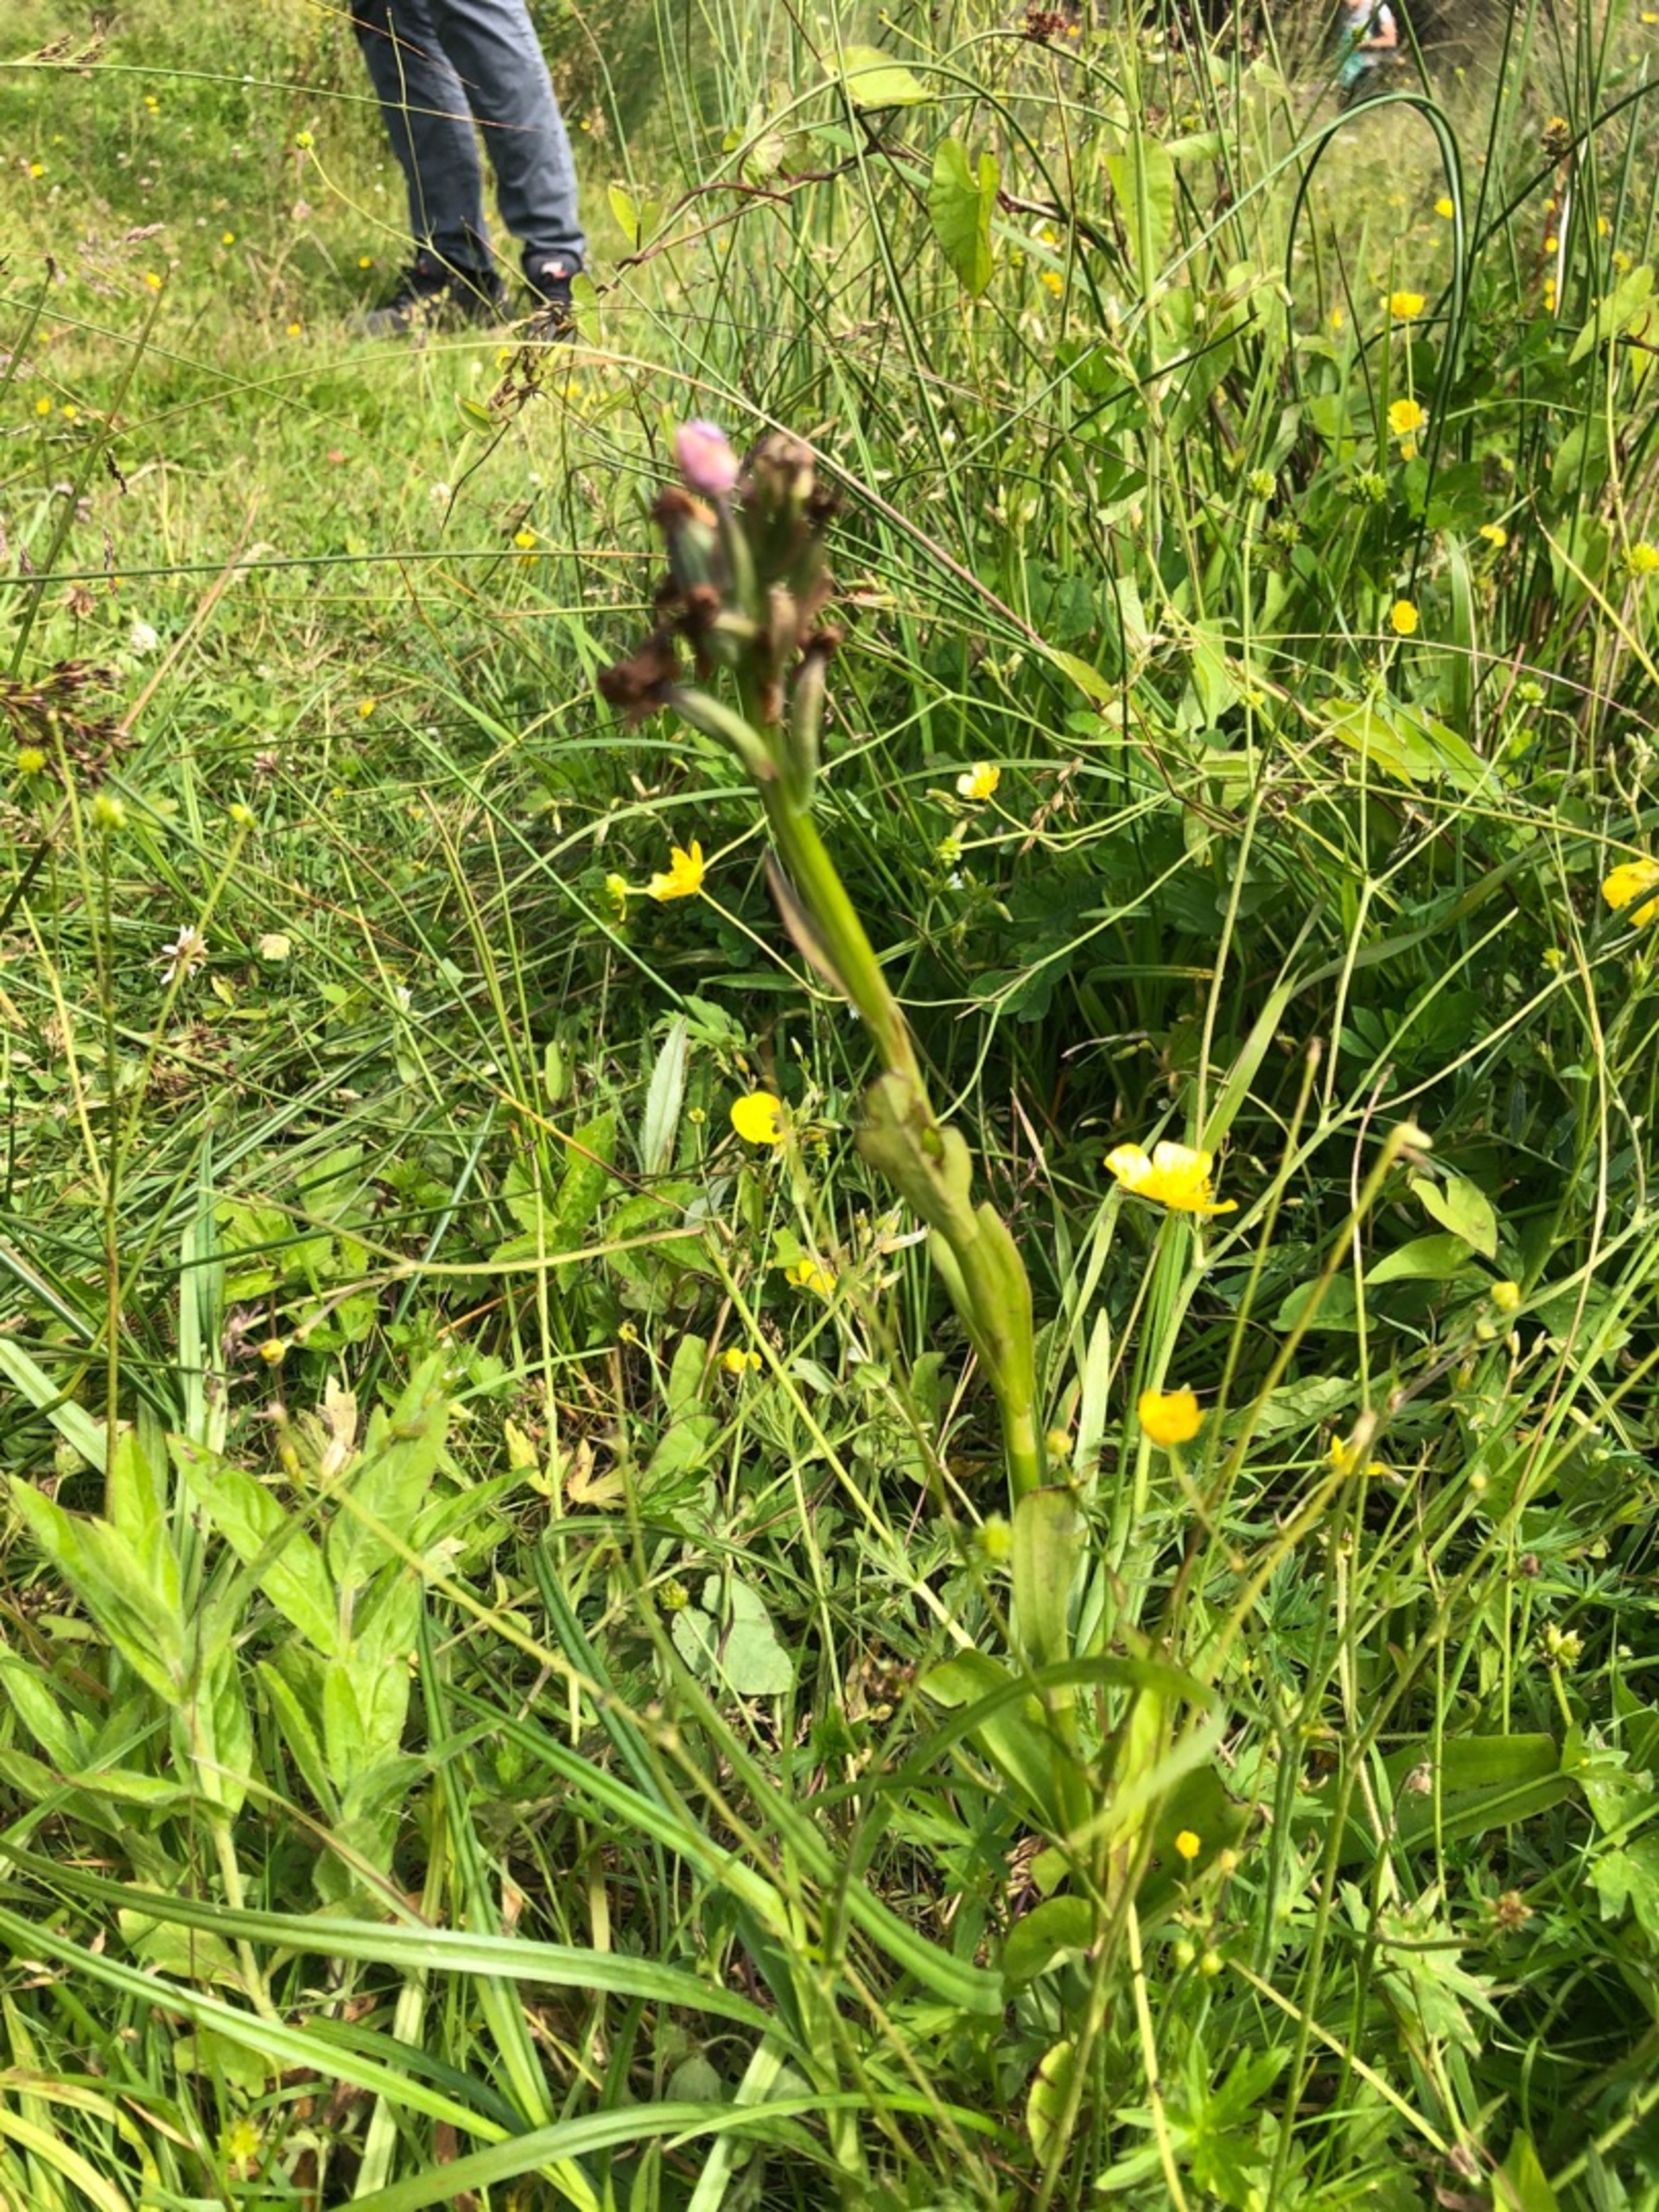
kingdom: Plantae
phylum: Tracheophyta
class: Liliopsida
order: Asparagales
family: Orchidaceae
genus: Dactylorhiza
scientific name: Dactylorhiza
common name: Gøgeurt (Dactylorhiza-slægten)
